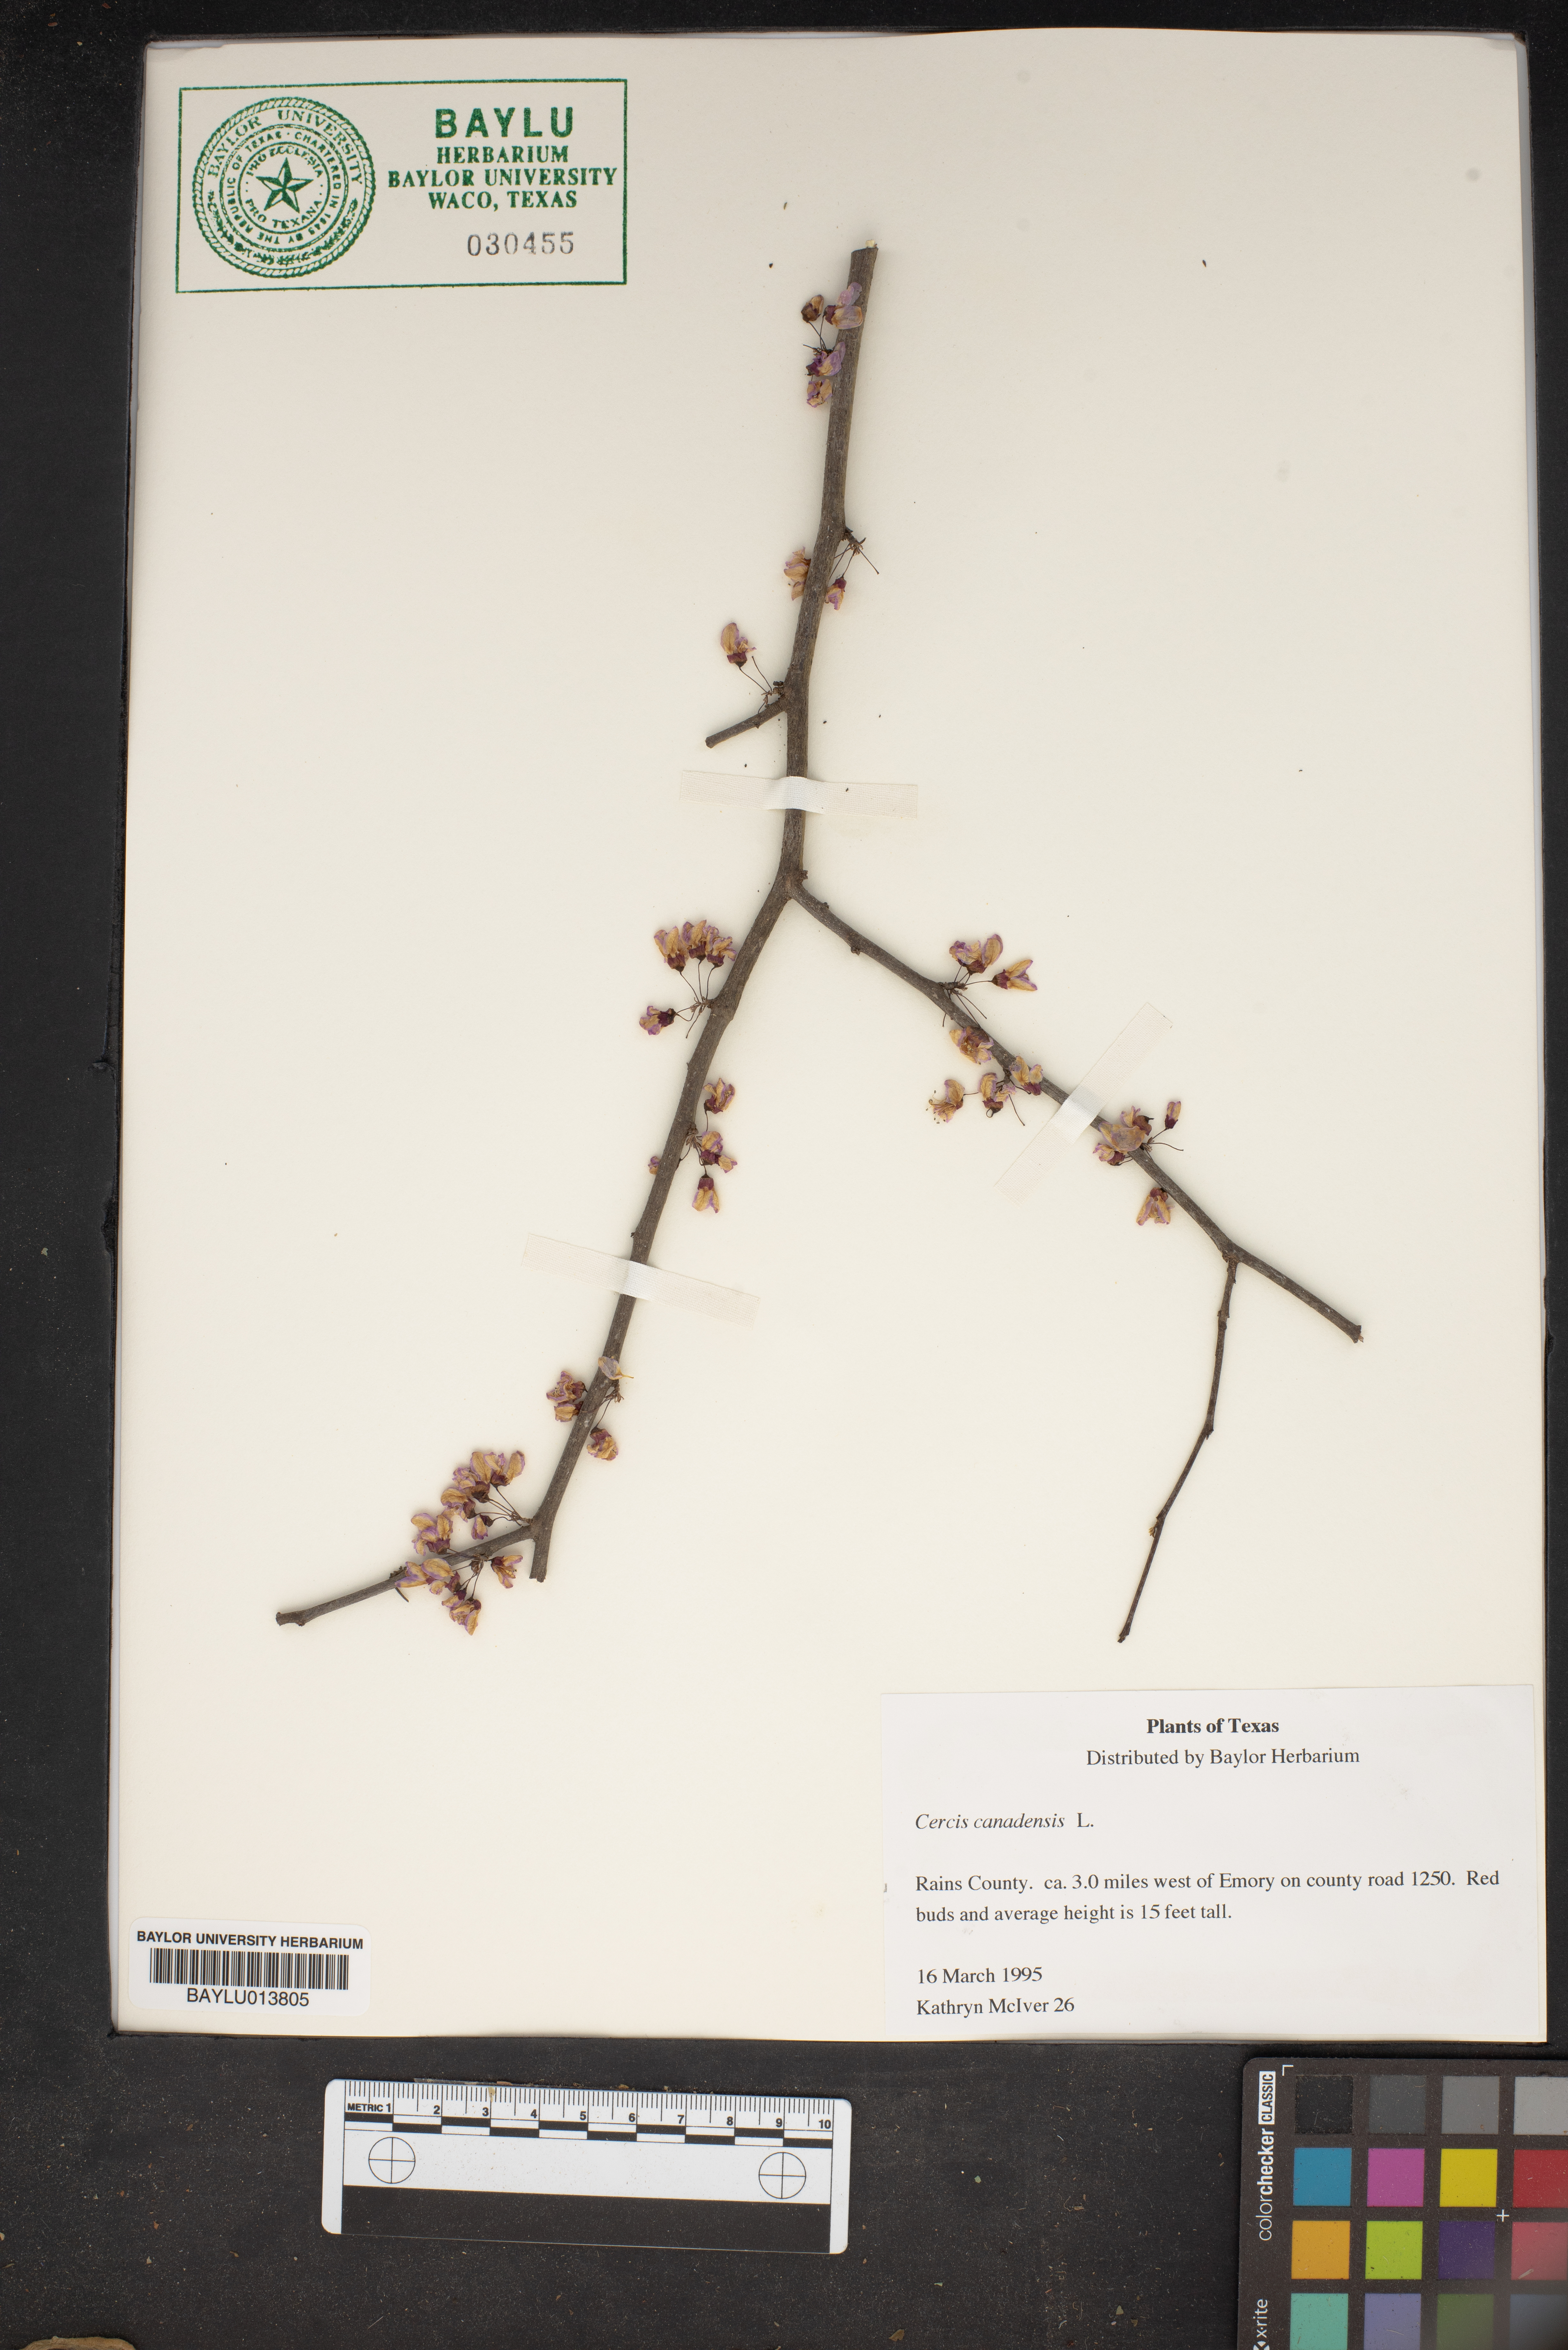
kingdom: Plantae
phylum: Tracheophyta
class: Magnoliopsida
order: Fabales
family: Fabaceae
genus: Cercis
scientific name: Cercis canadensis
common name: Eastern redbud
